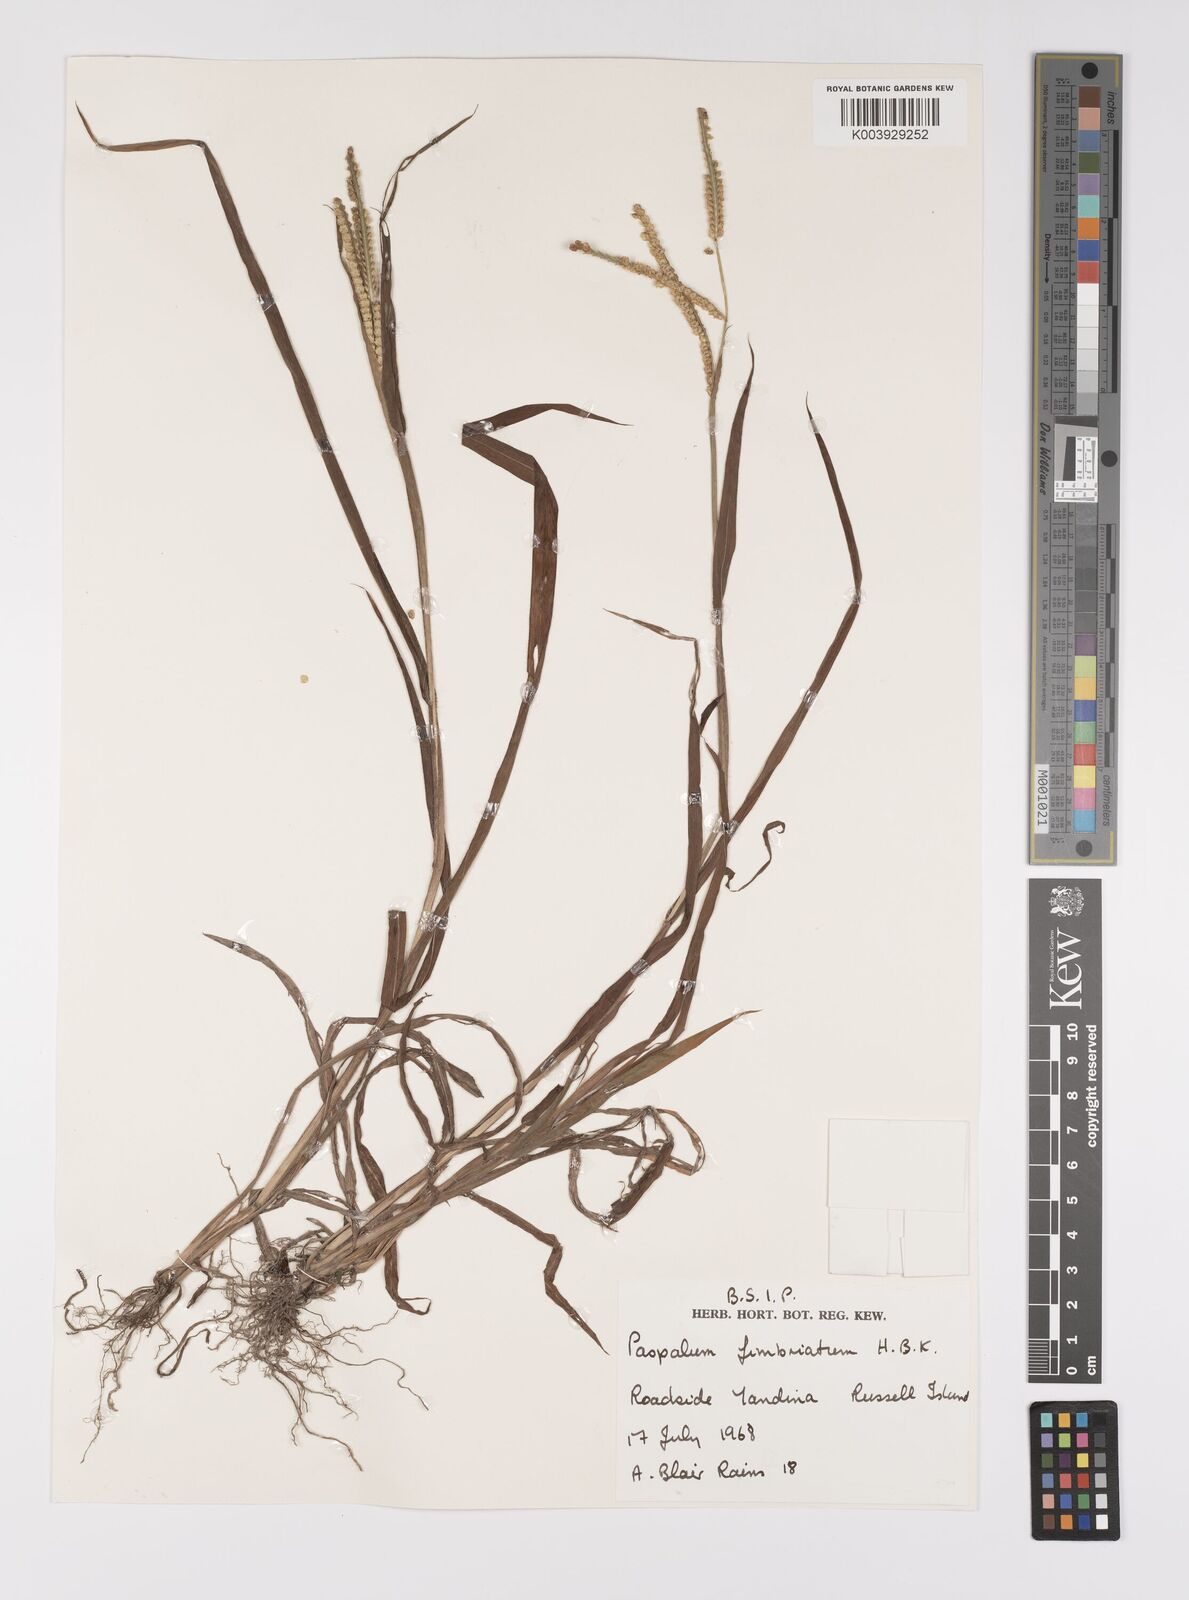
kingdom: Plantae
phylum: Tracheophyta
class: Liliopsida
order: Poales
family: Poaceae
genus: Paspalum
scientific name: Paspalum fimbriatum
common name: Panama crowngrass
